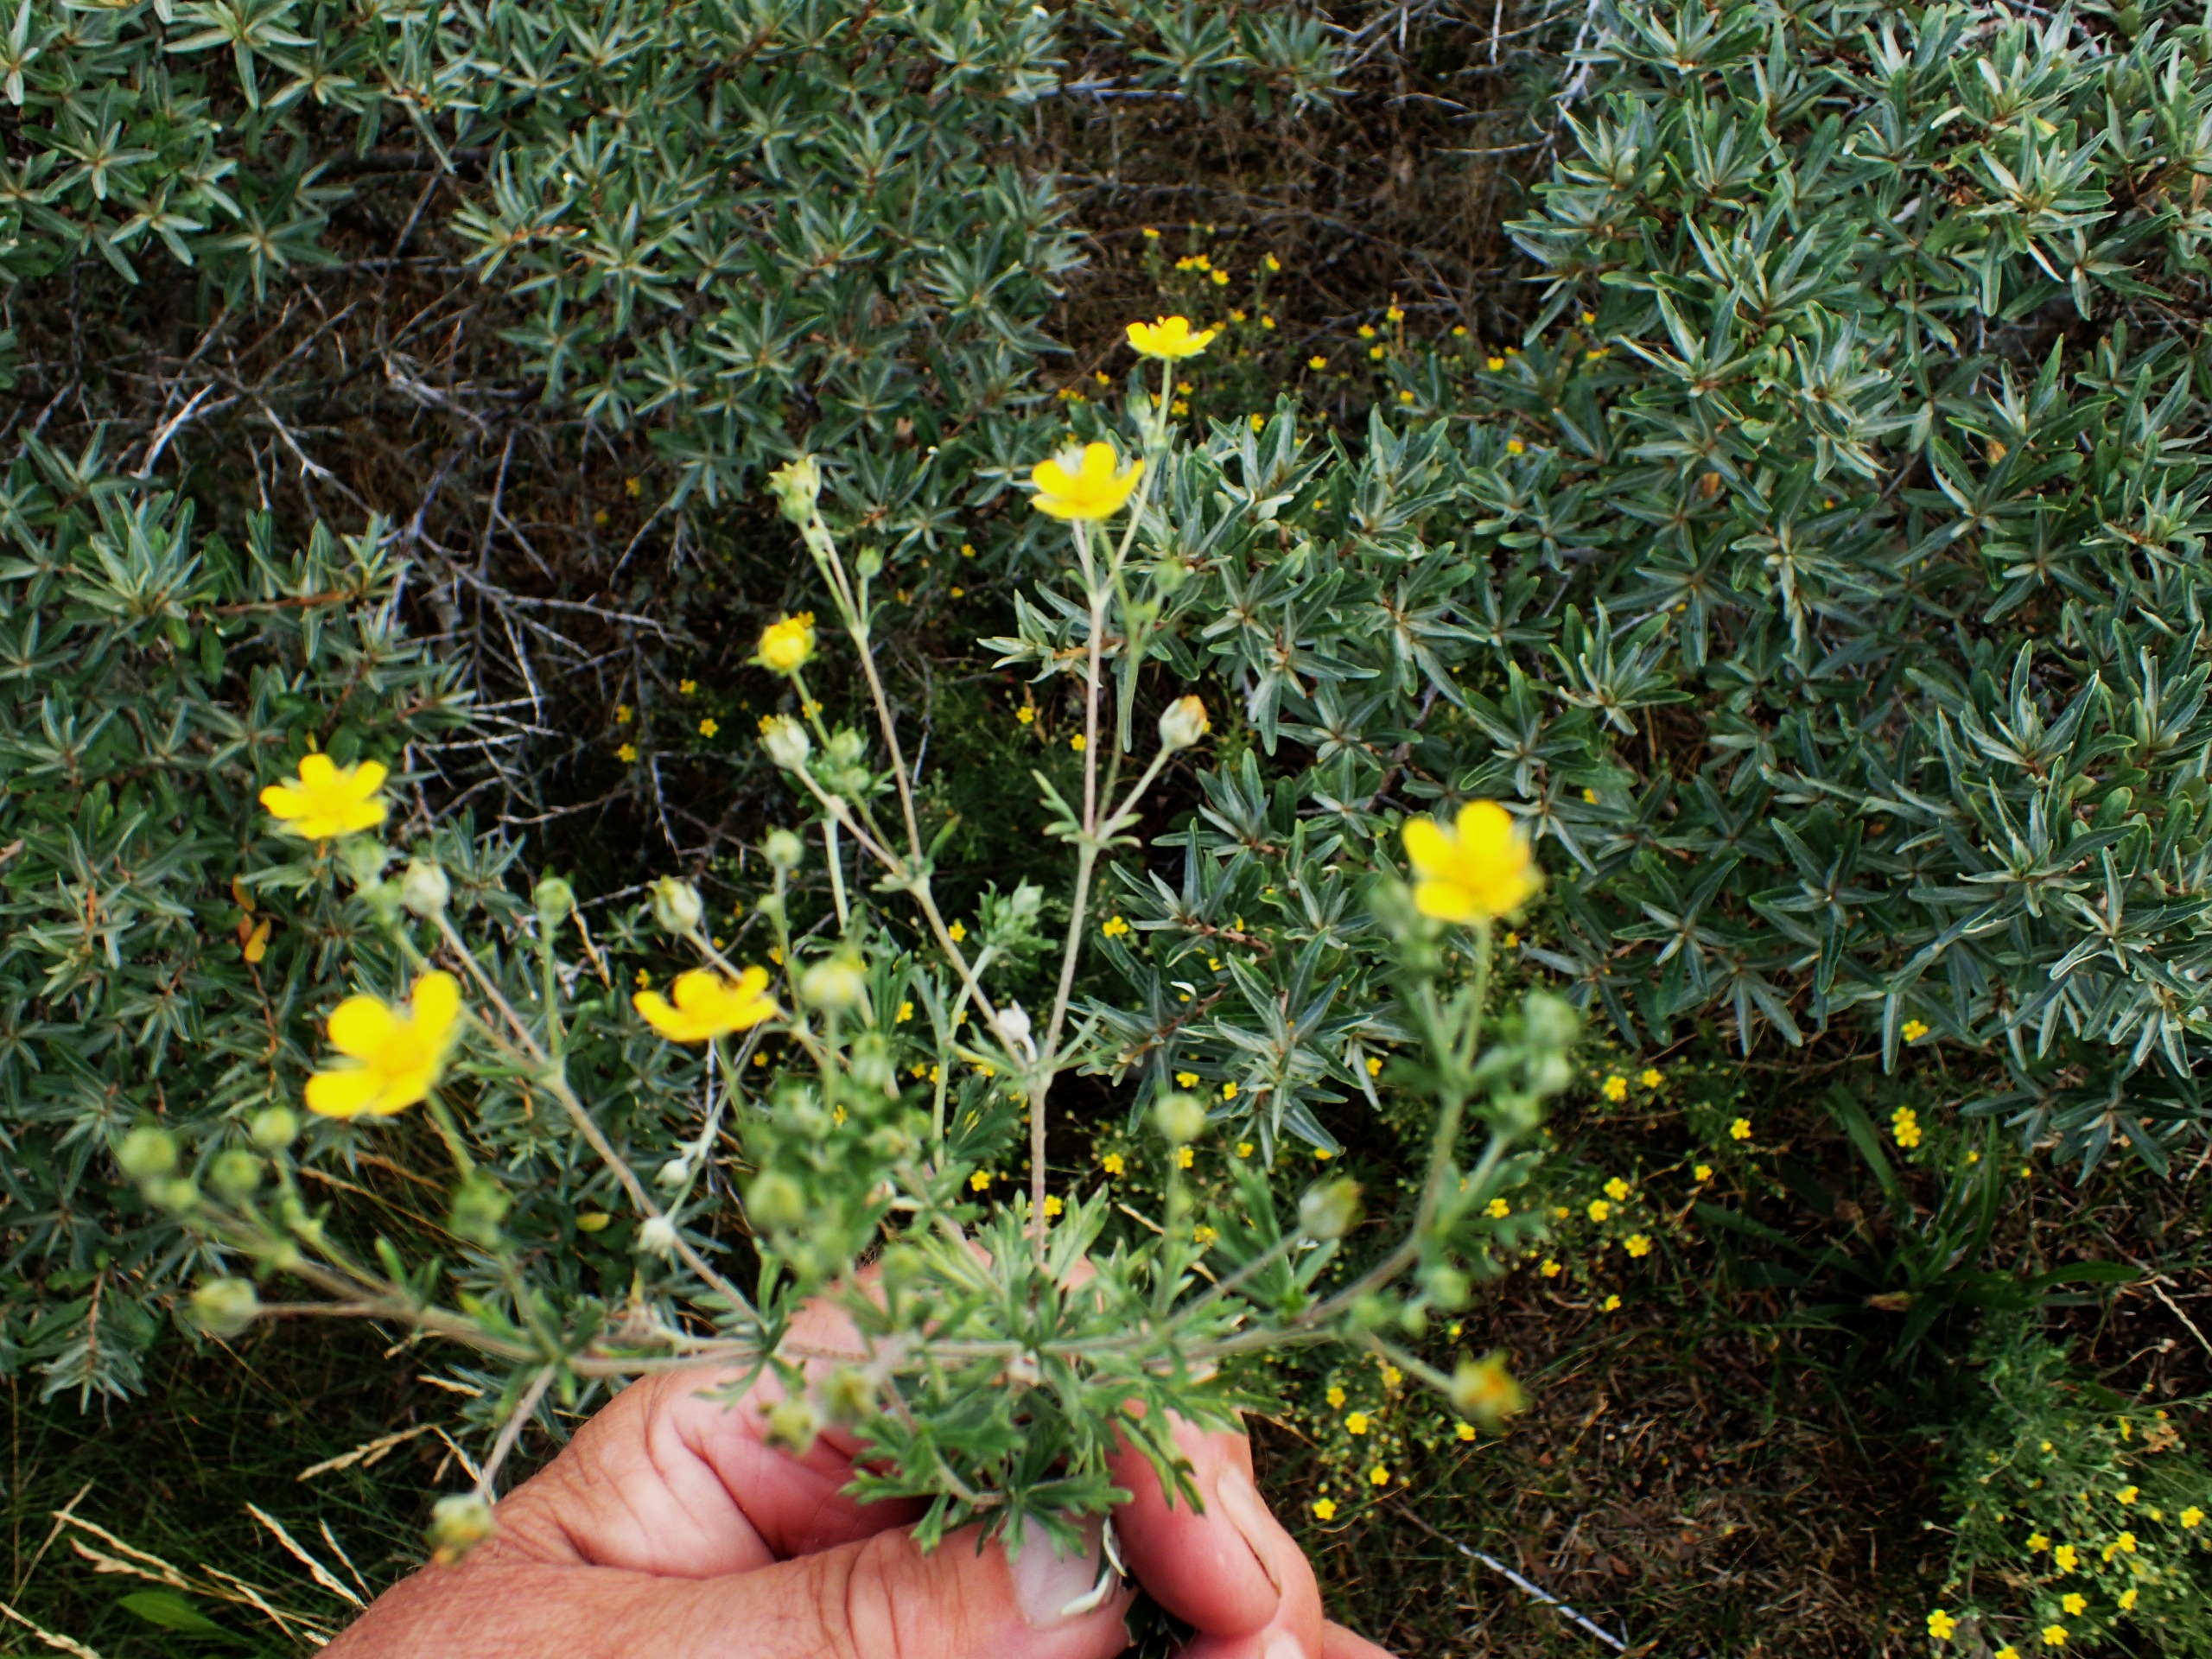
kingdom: Plantae
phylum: Tracheophyta
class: Magnoliopsida
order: Rosales
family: Rosaceae
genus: Potentilla
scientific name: Potentilla argentea
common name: Sølv-potentil
